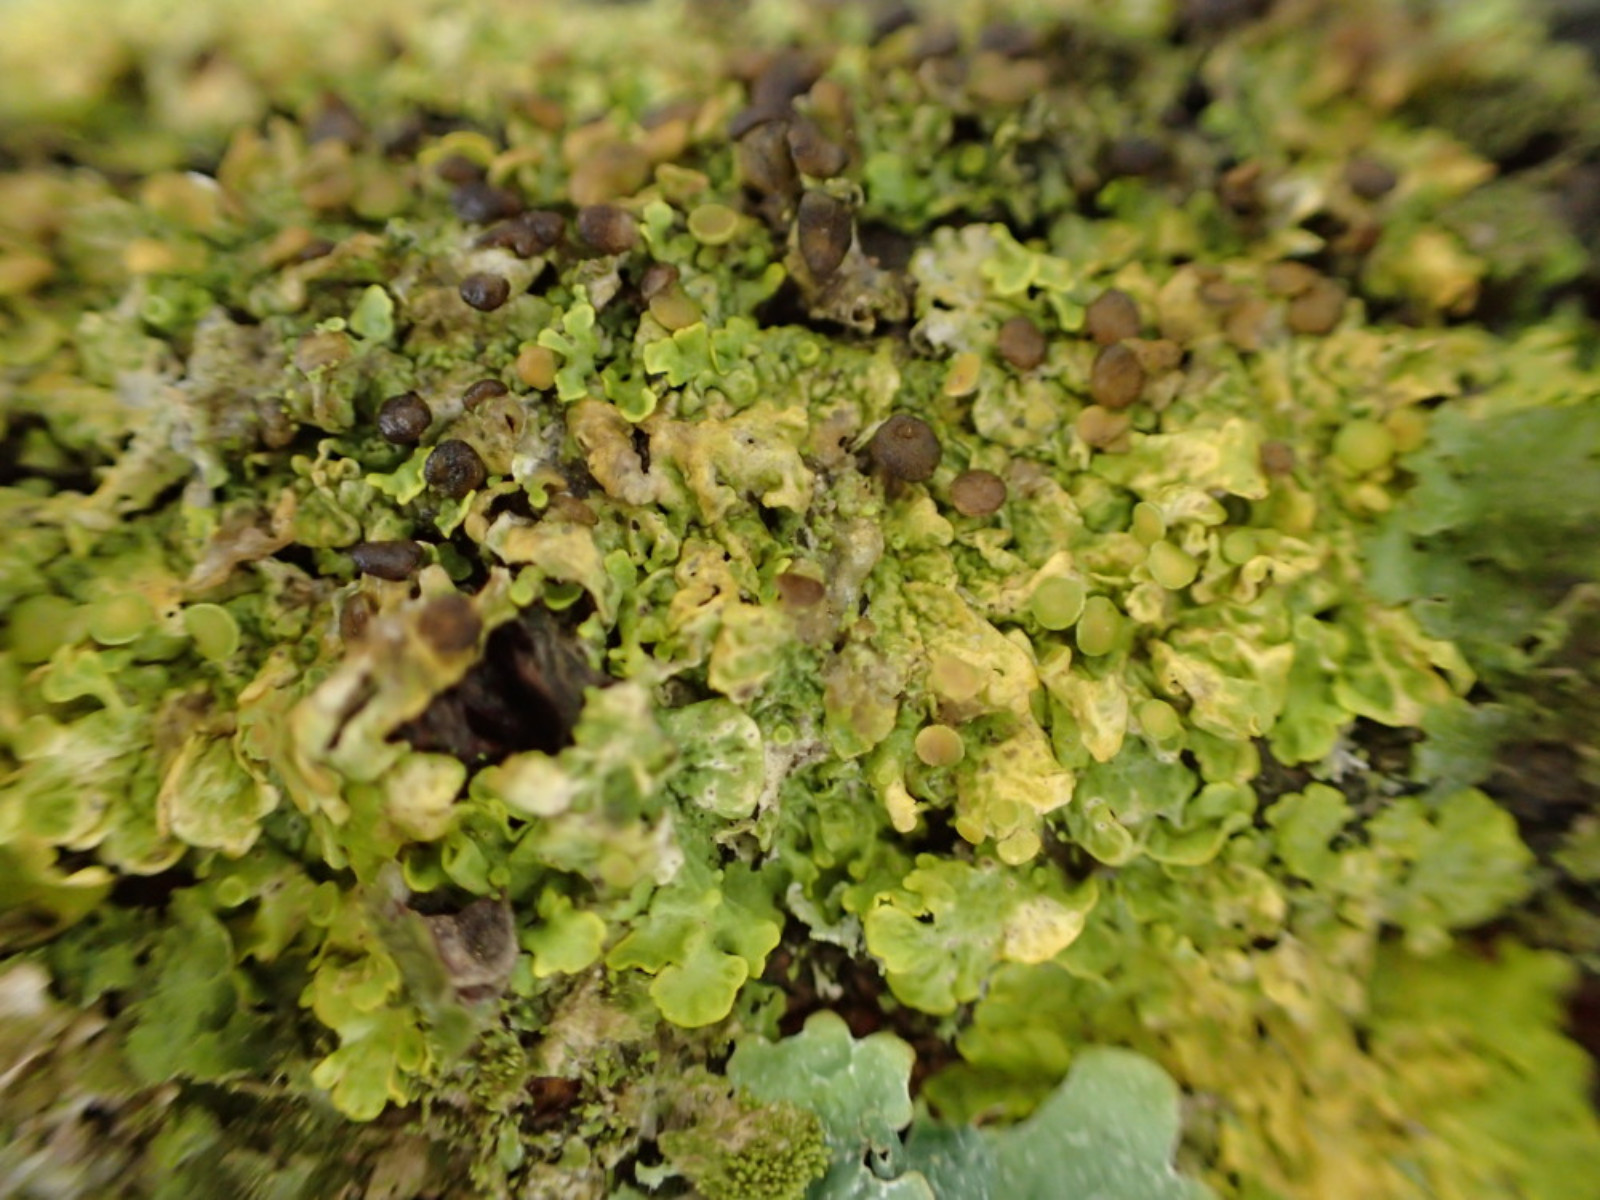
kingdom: Fungi
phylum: Ascomycota
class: Lecanoromycetes
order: Teloschistales
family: Teloschistaceae
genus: Xanthoria
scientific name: Xanthoria parietina
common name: almindelig væggelav
